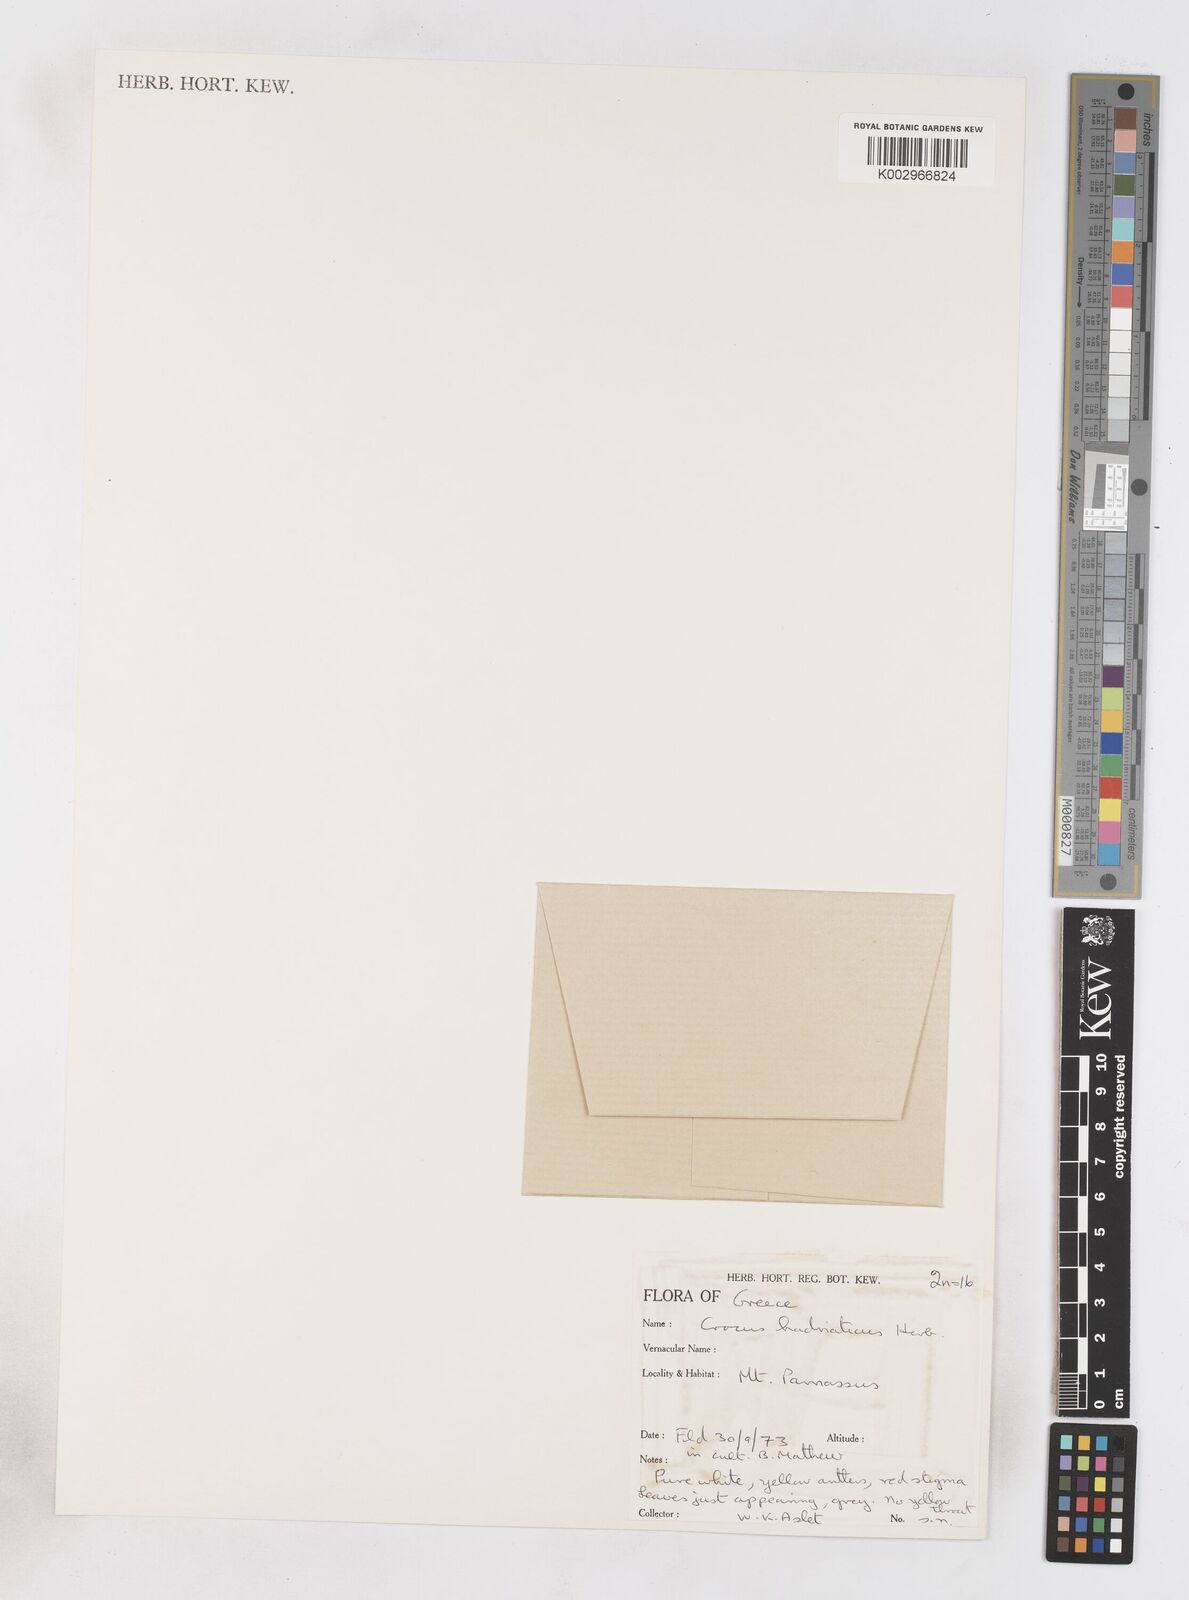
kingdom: Plantae
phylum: Tracheophyta
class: Liliopsida
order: Asparagales
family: Iridaceae
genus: Crocus
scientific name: Crocus hadriaticus
